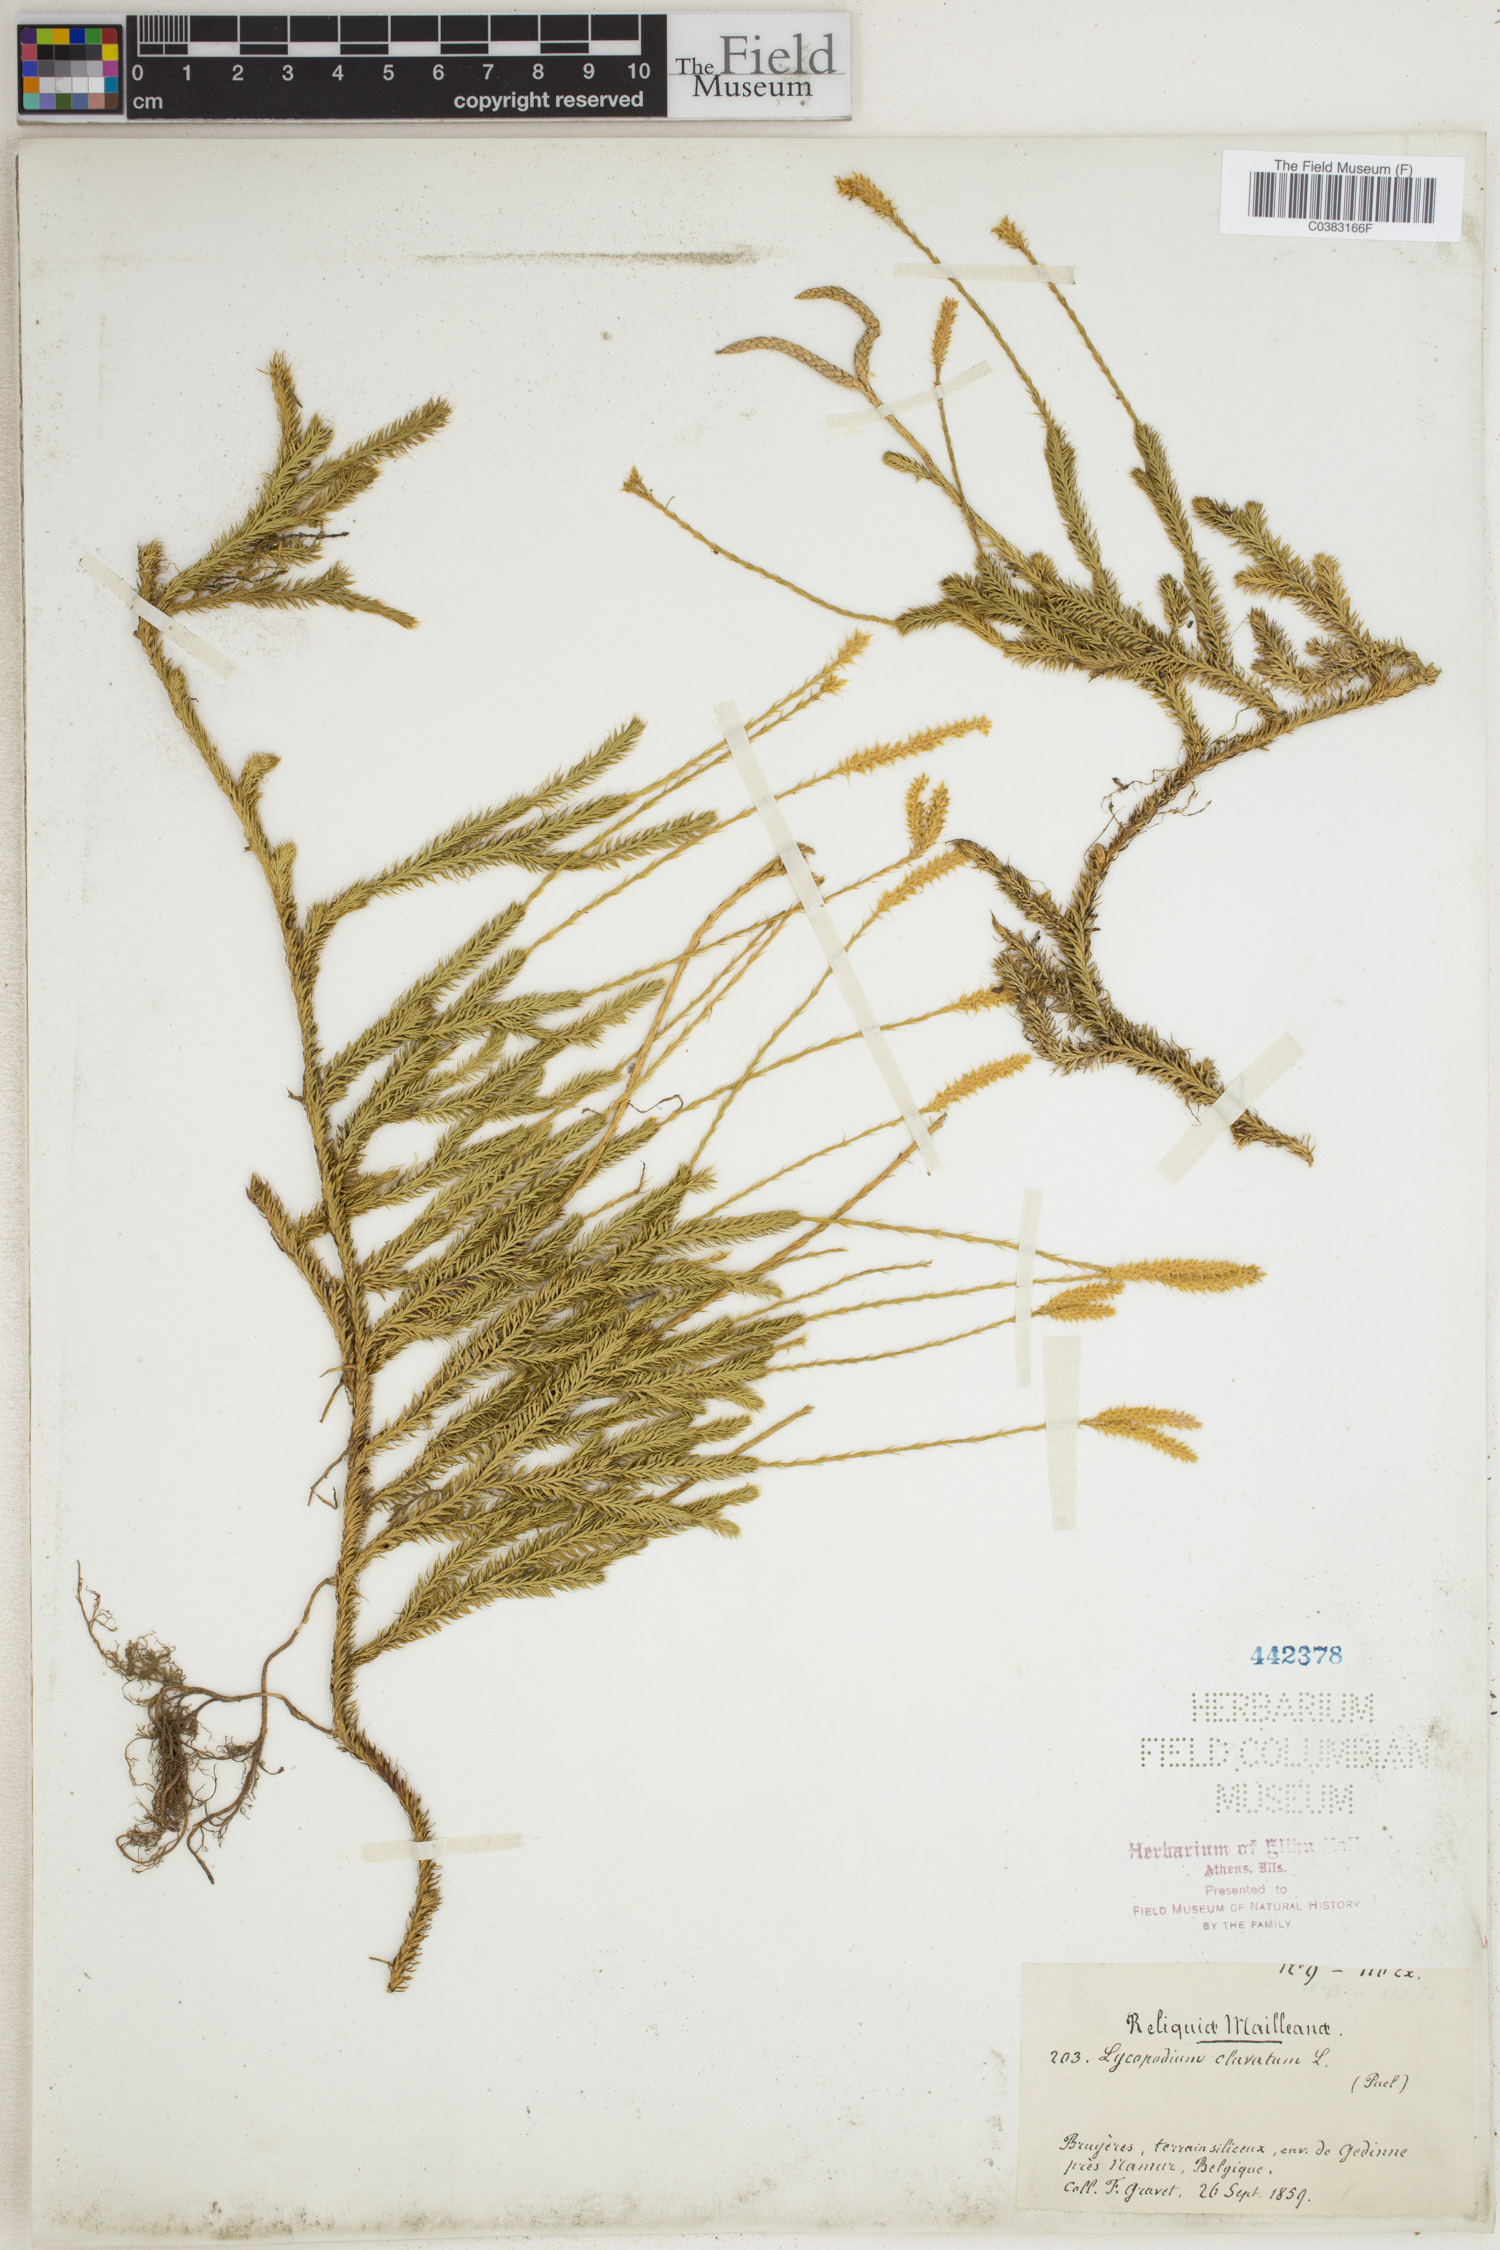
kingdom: Plantae
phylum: Tracheophyta
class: Lycopodiopsida
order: Lycopodiales
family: Lycopodiaceae
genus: Lycopodium
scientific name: Lycopodium clavatum
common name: Stag's-horn clubmoss
